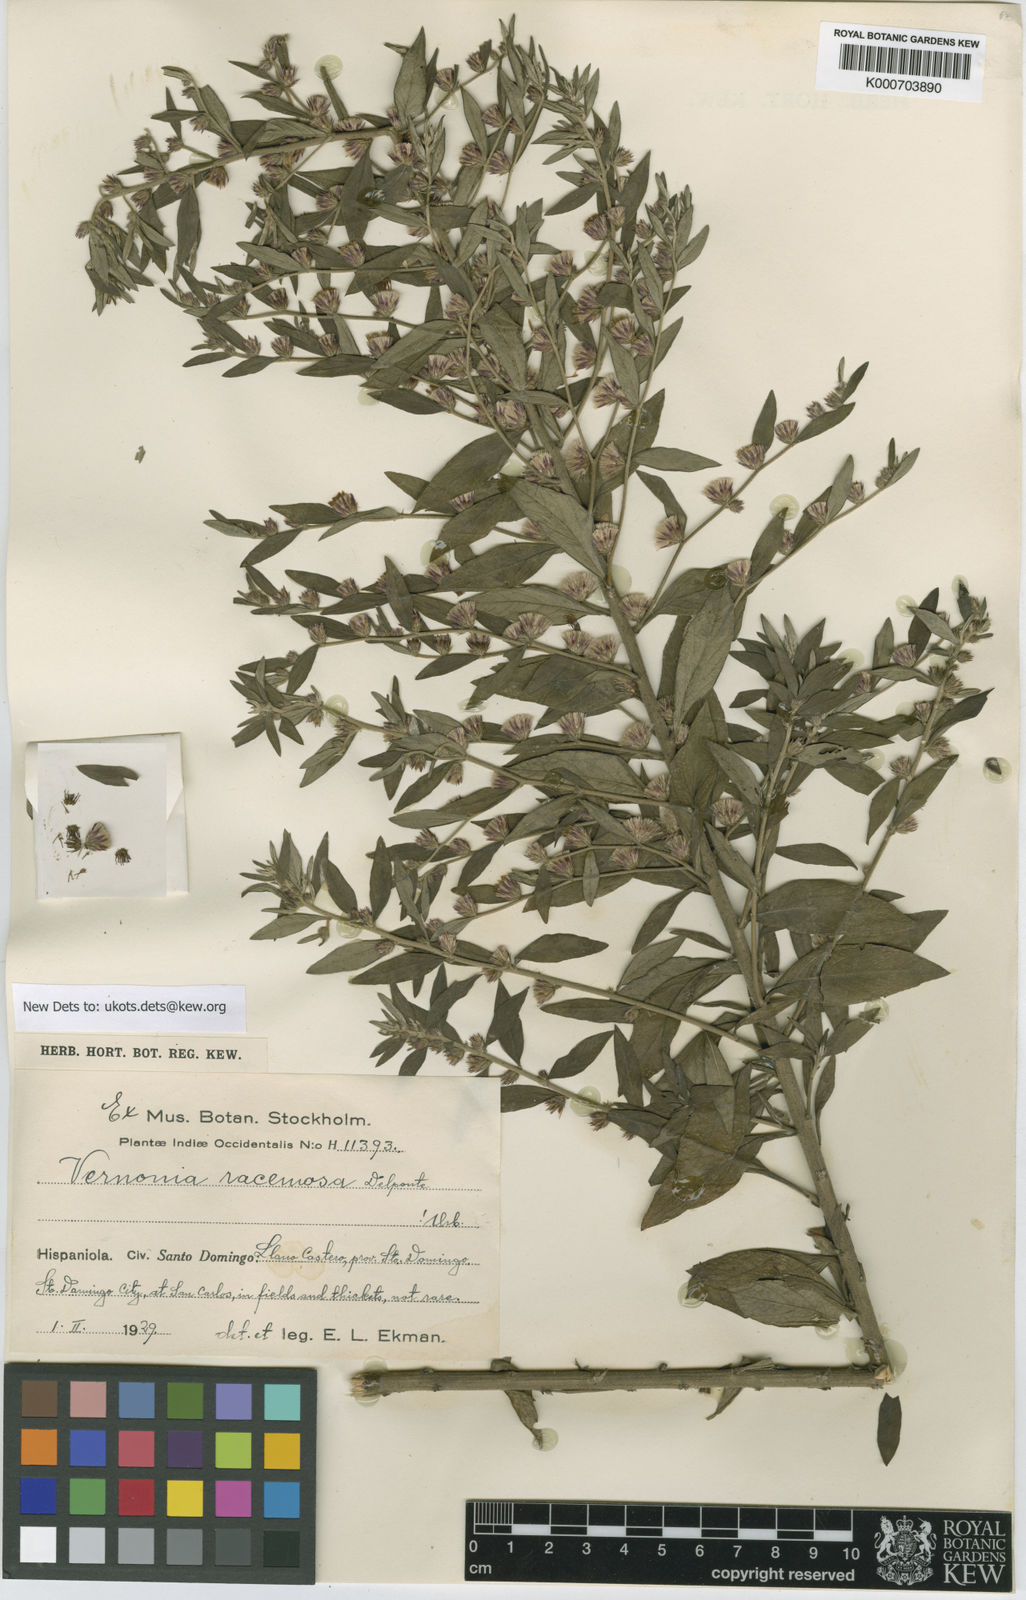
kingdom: Plantae
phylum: Tracheophyta
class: Magnoliopsida
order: Asterales
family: Asteraceae
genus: Lepidaploa
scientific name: Lepidaploa sericea
